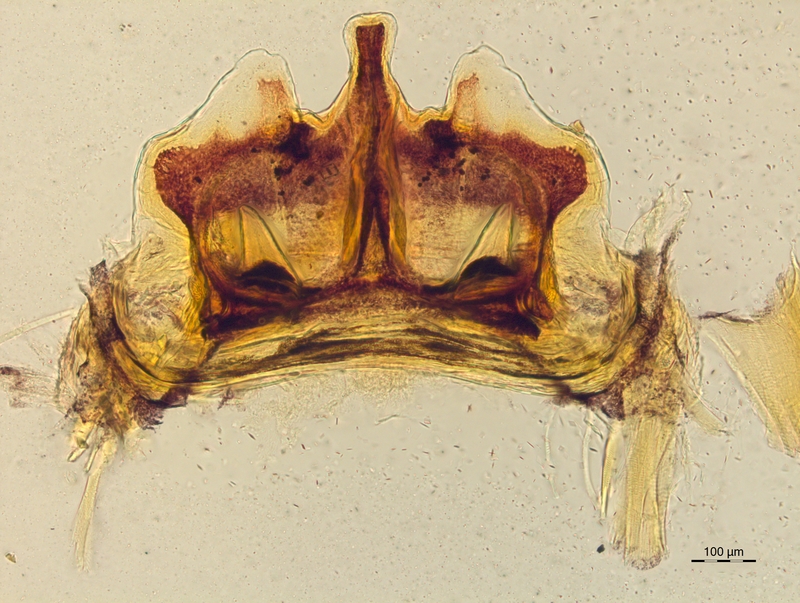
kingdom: Animalia
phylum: Arthropoda
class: Diplopoda
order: Chordeumatida
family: Craspedosomatidae
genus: Craspedosoma
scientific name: Craspedosoma rawlinsii
